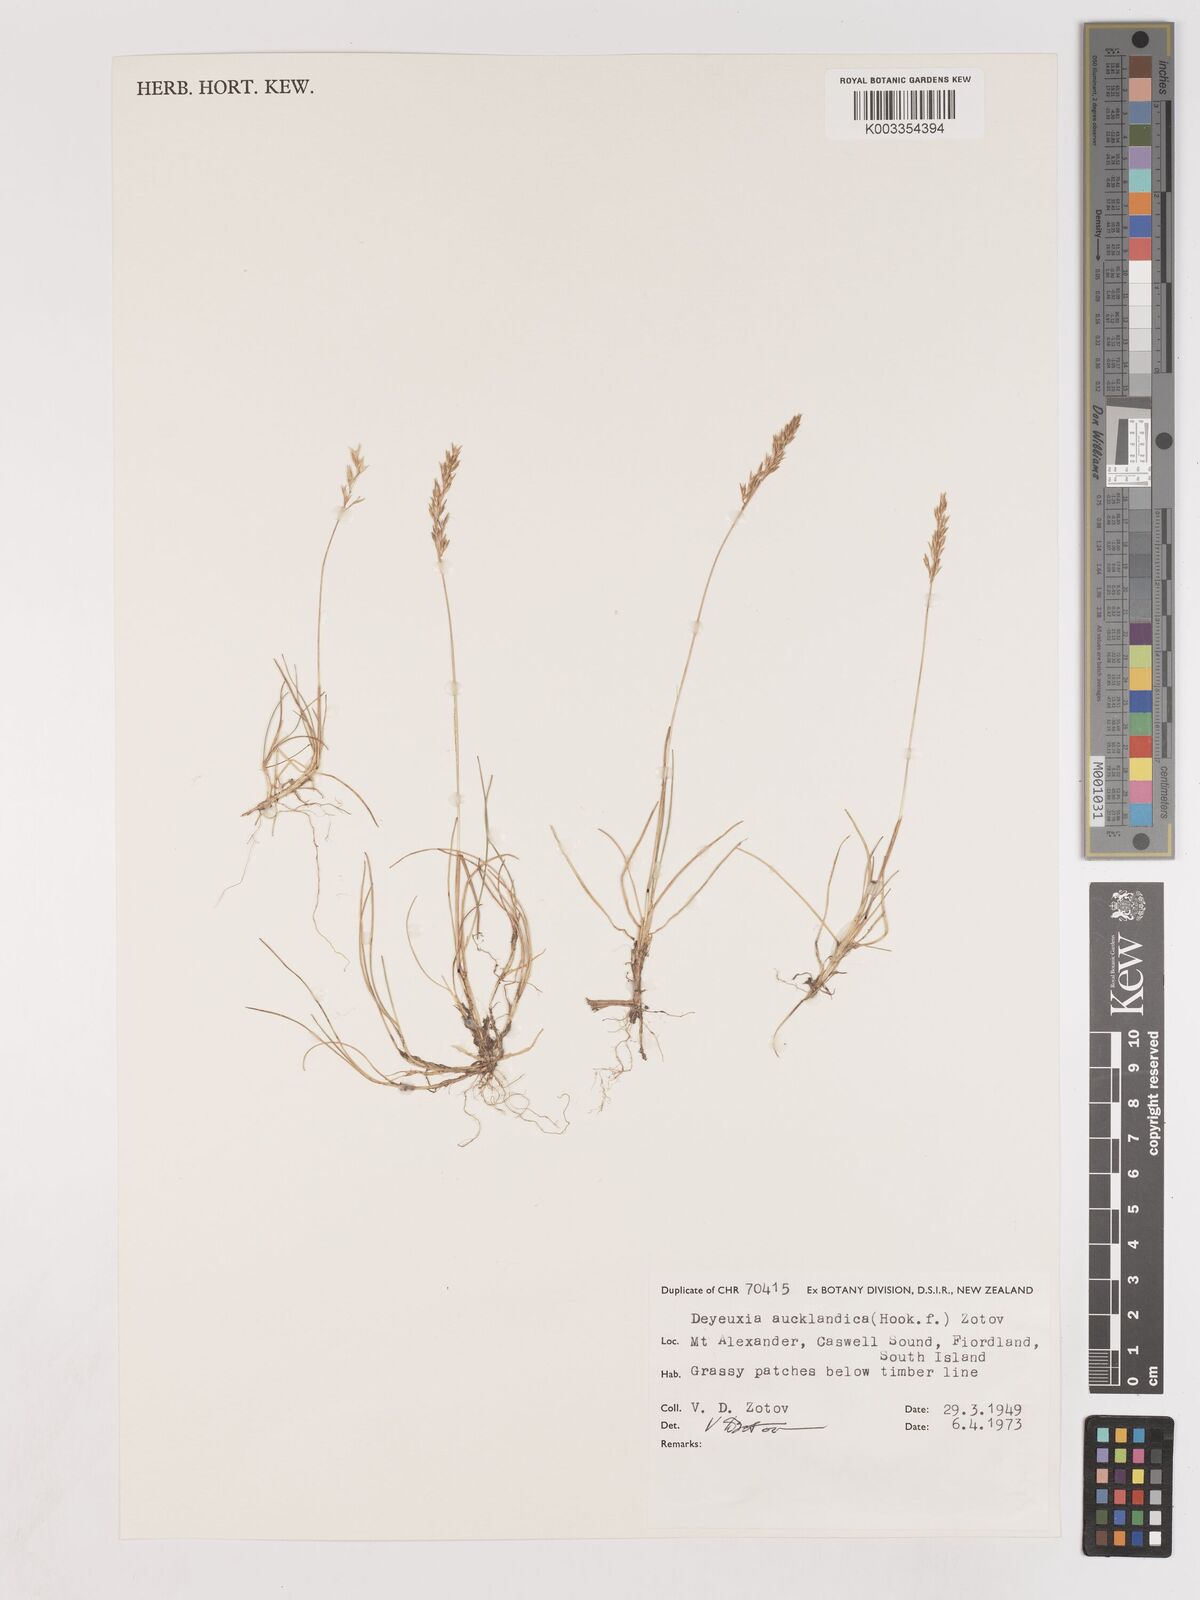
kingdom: Plantae
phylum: Tracheophyta
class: Liliopsida
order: Poales
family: Poaceae
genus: Agrostis
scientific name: Agrostis aucklandica
